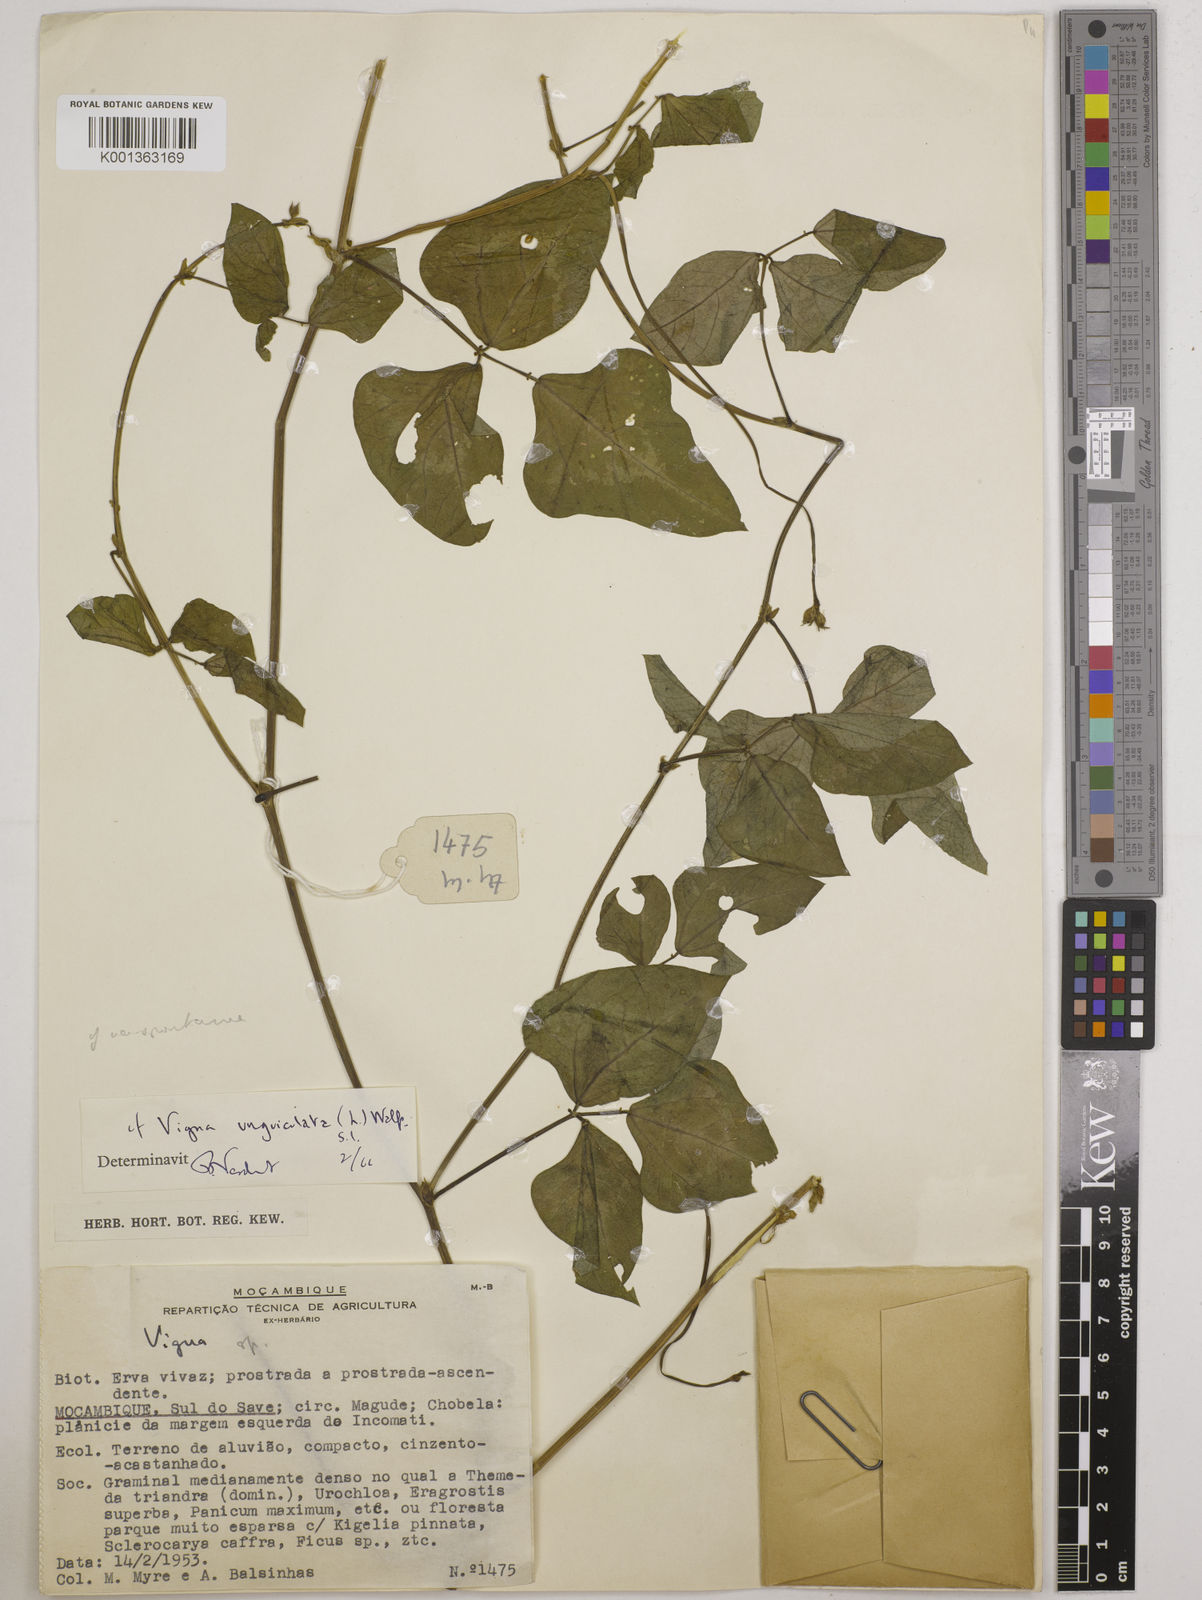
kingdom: Plantae
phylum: Tracheophyta
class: Magnoliopsida
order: Fabales
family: Fabaceae
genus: Vigna
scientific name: Vigna unguiculata
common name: Cowpea
